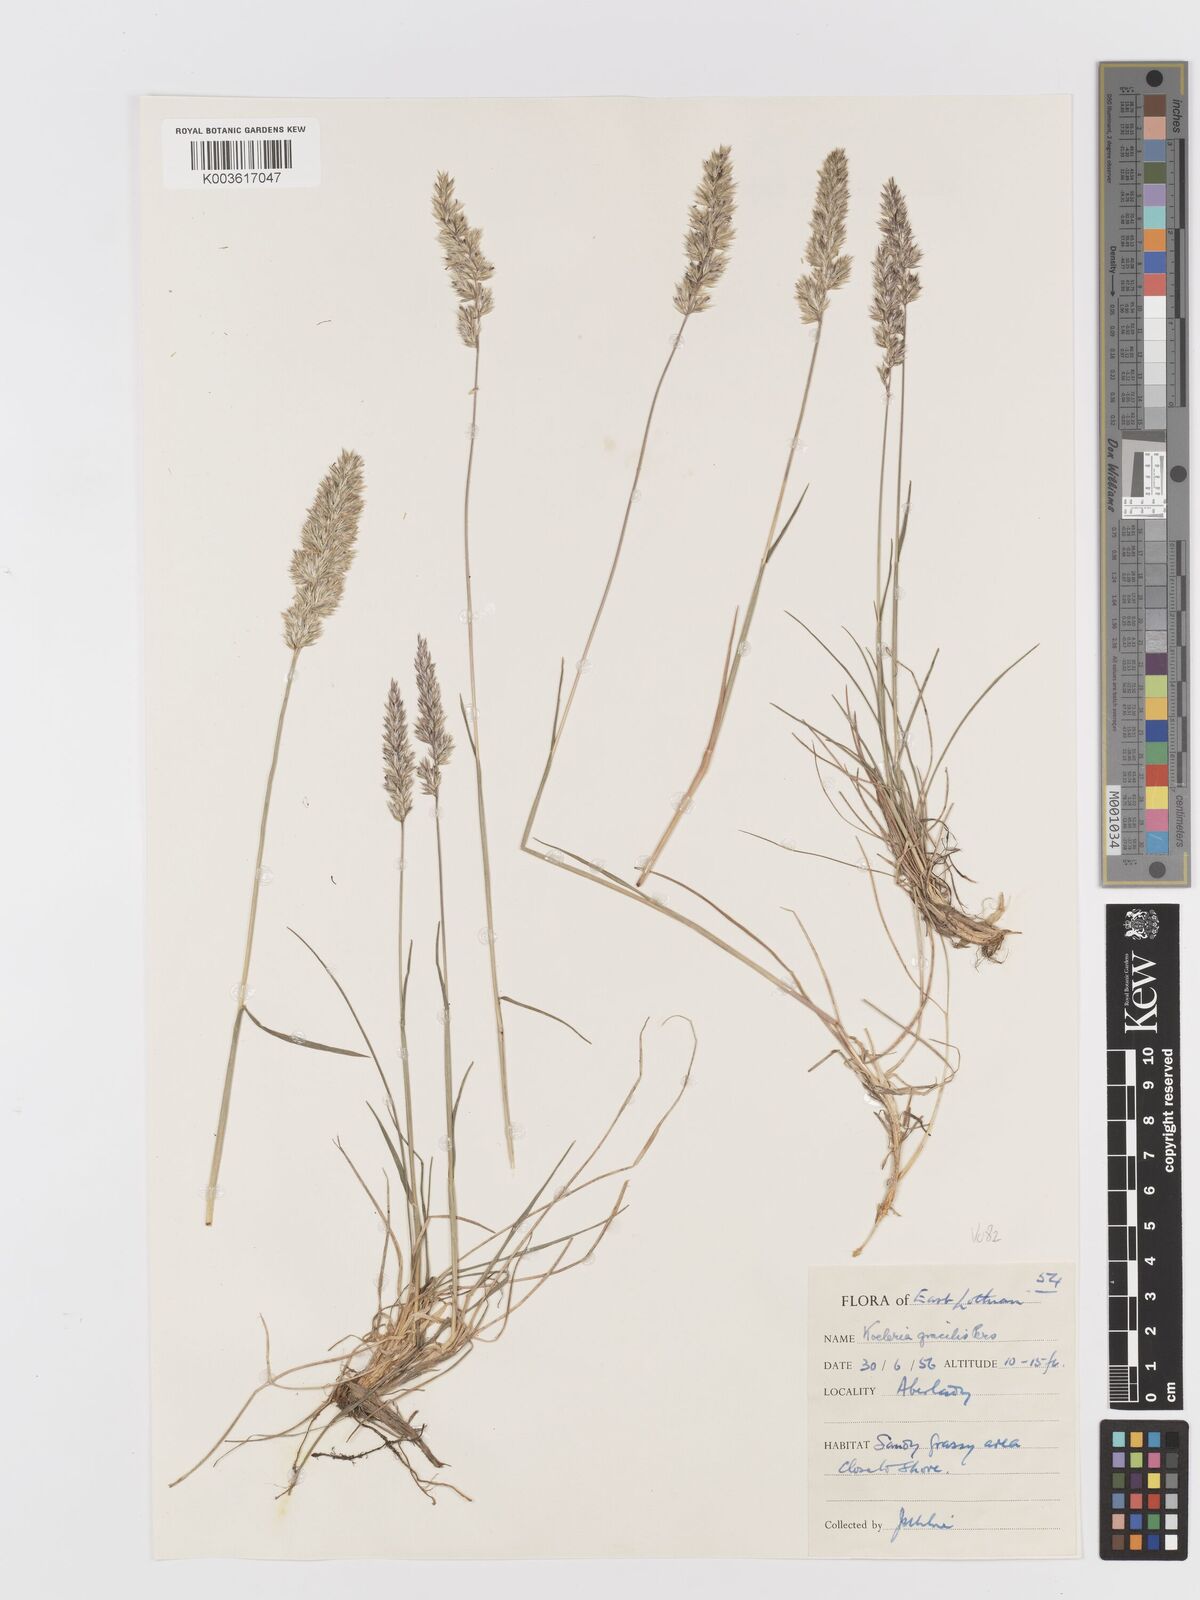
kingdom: Plantae
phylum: Tracheophyta
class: Liliopsida
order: Poales
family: Poaceae
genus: Koeleria
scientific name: Koeleria nitidula
